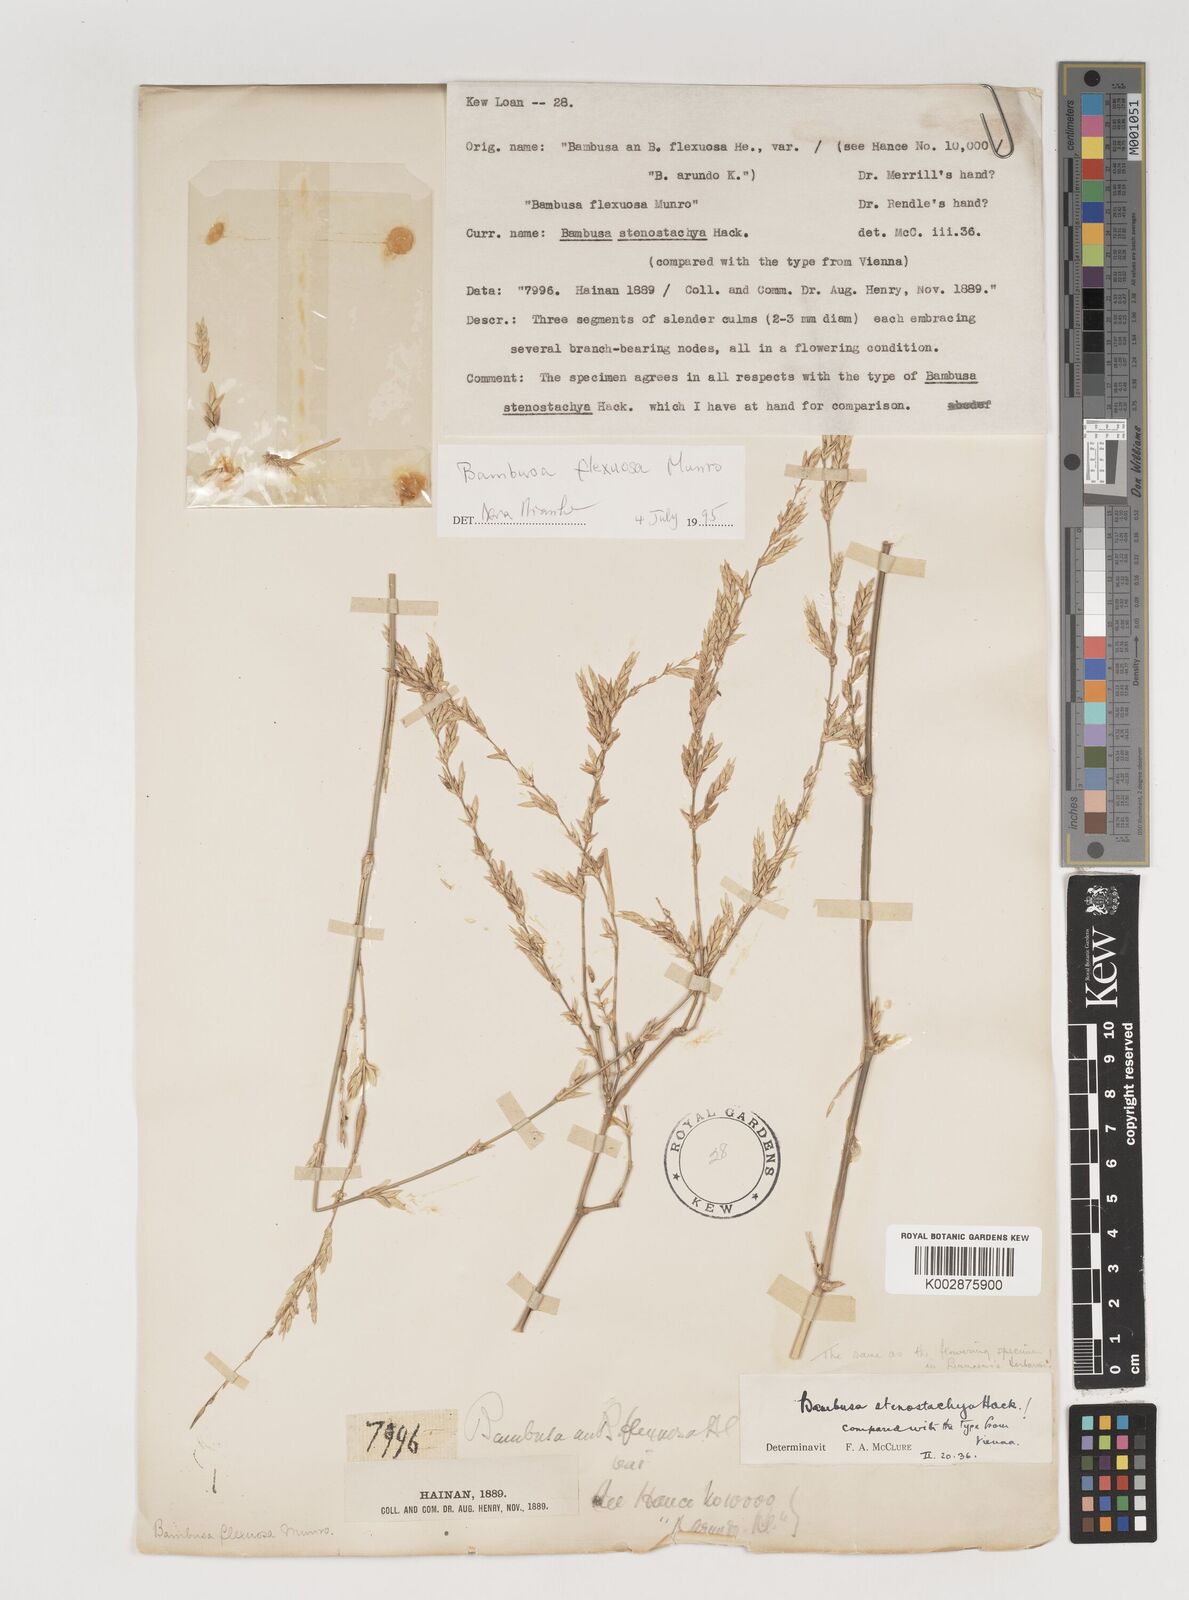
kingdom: Plantae
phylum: Tracheophyta
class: Liliopsida
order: Poales
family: Poaceae
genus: Bambusa
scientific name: Bambusa flexuosa
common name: Lesser thorny bamboo
